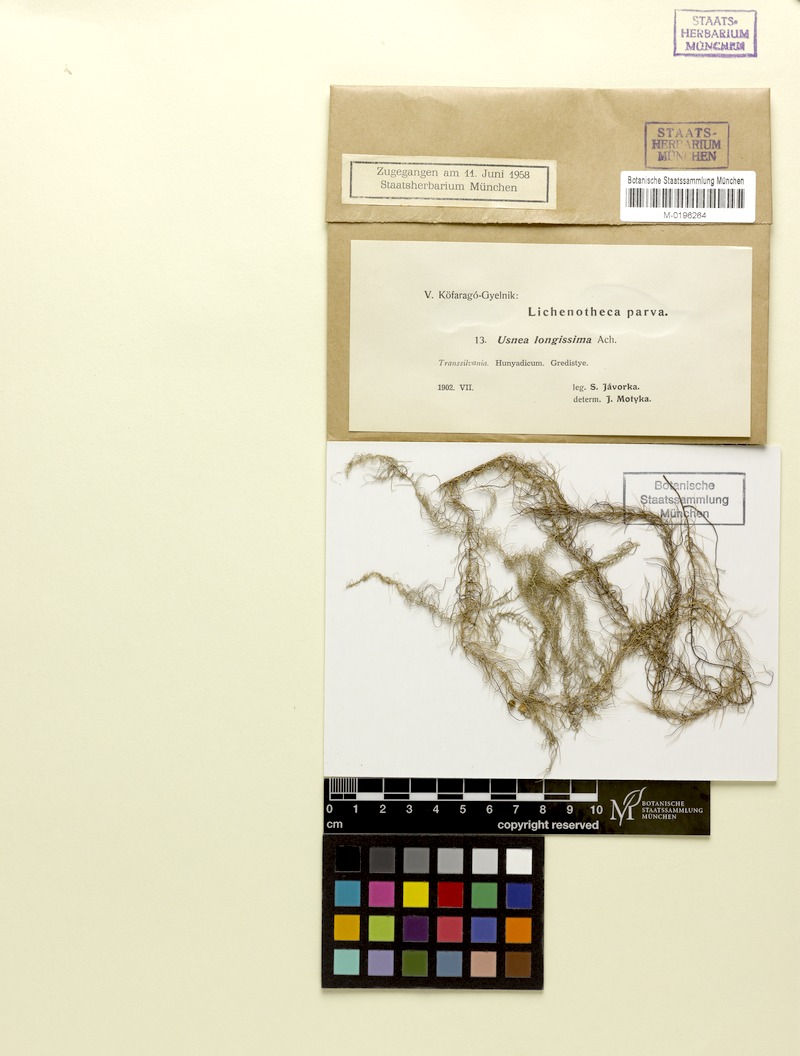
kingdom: Fungi
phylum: Ascomycota
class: Lecanoromycetes
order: Lecanorales
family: Parmeliaceae
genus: Dolichousnea
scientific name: Dolichousnea longissima
